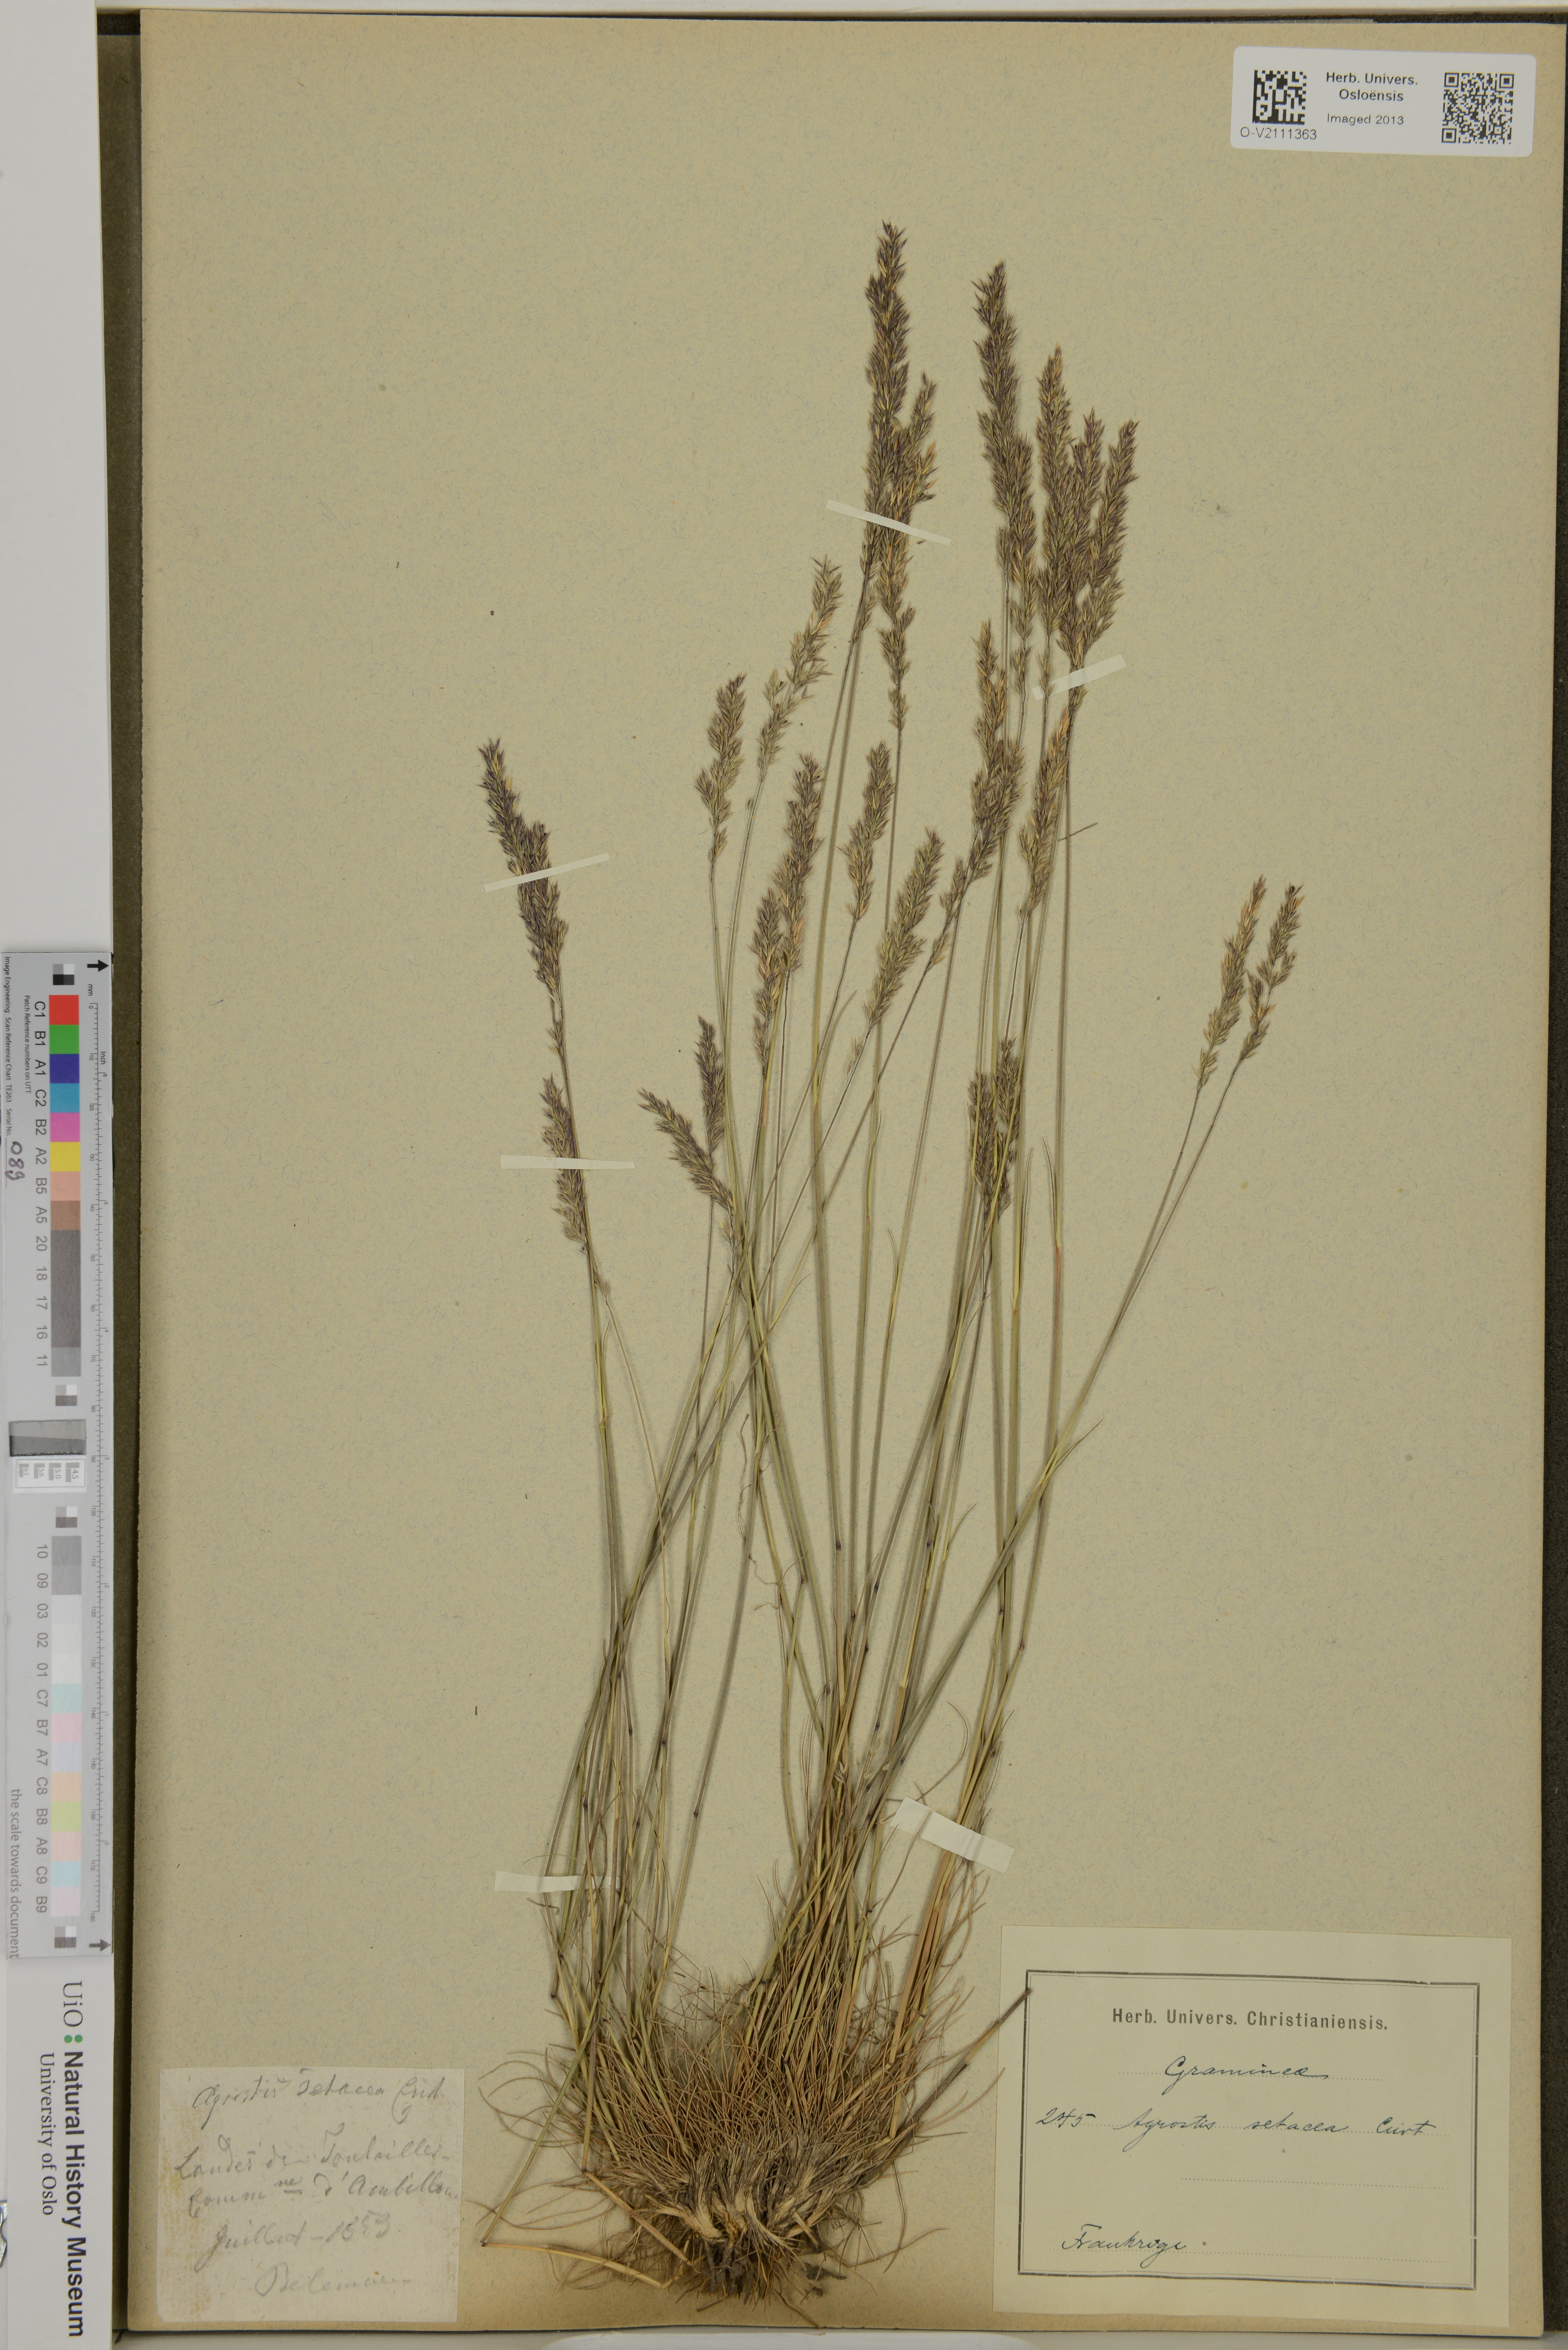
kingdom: Plantae
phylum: Tracheophyta
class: Liliopsida
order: Poales
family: Poaceae
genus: Agrostis
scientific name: Agrostis rupestris
